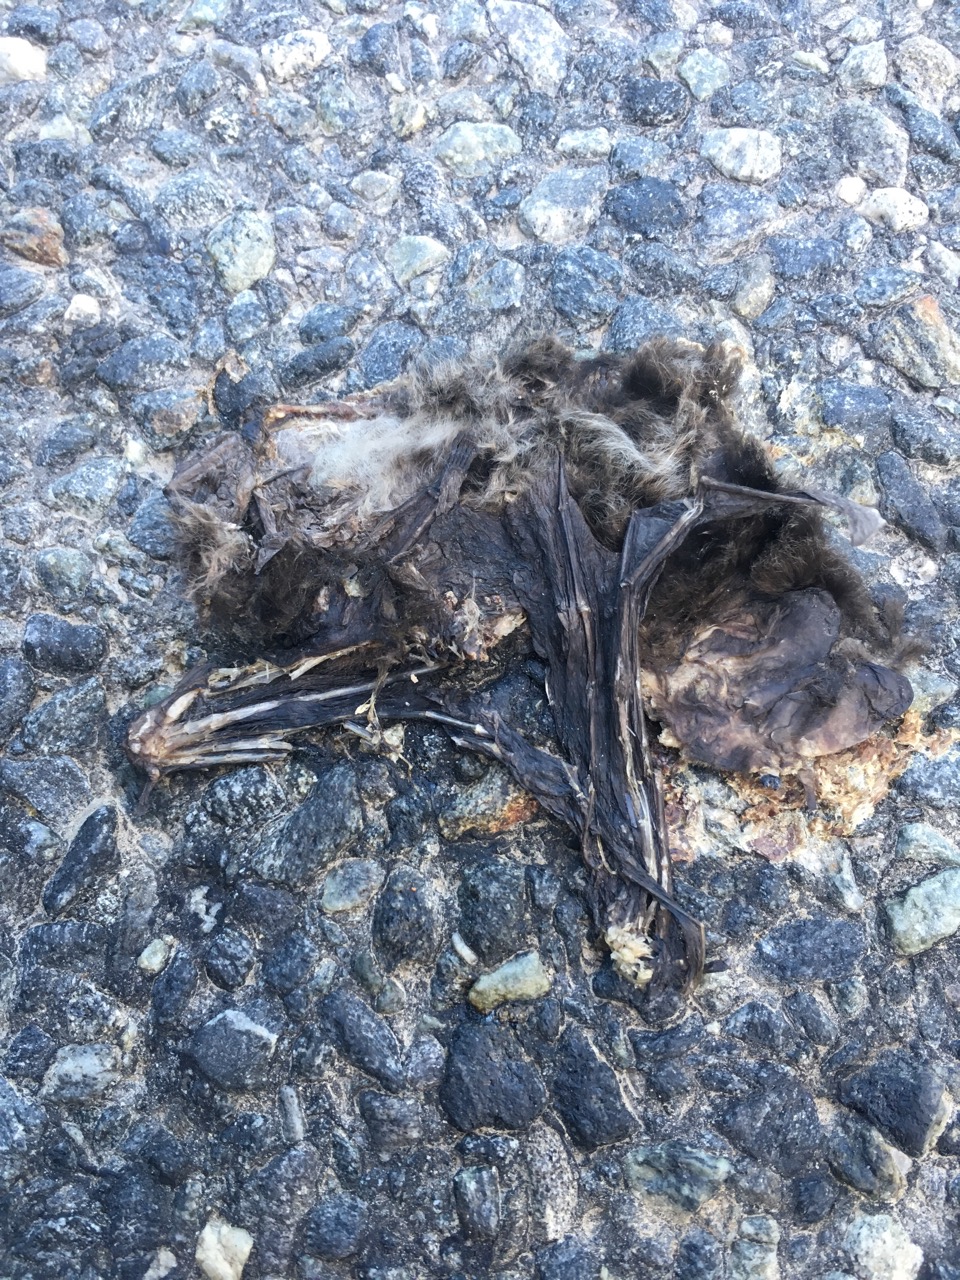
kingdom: Animalia
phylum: Chordata
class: Mammalia
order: Chiroptera
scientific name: Chiroptera
